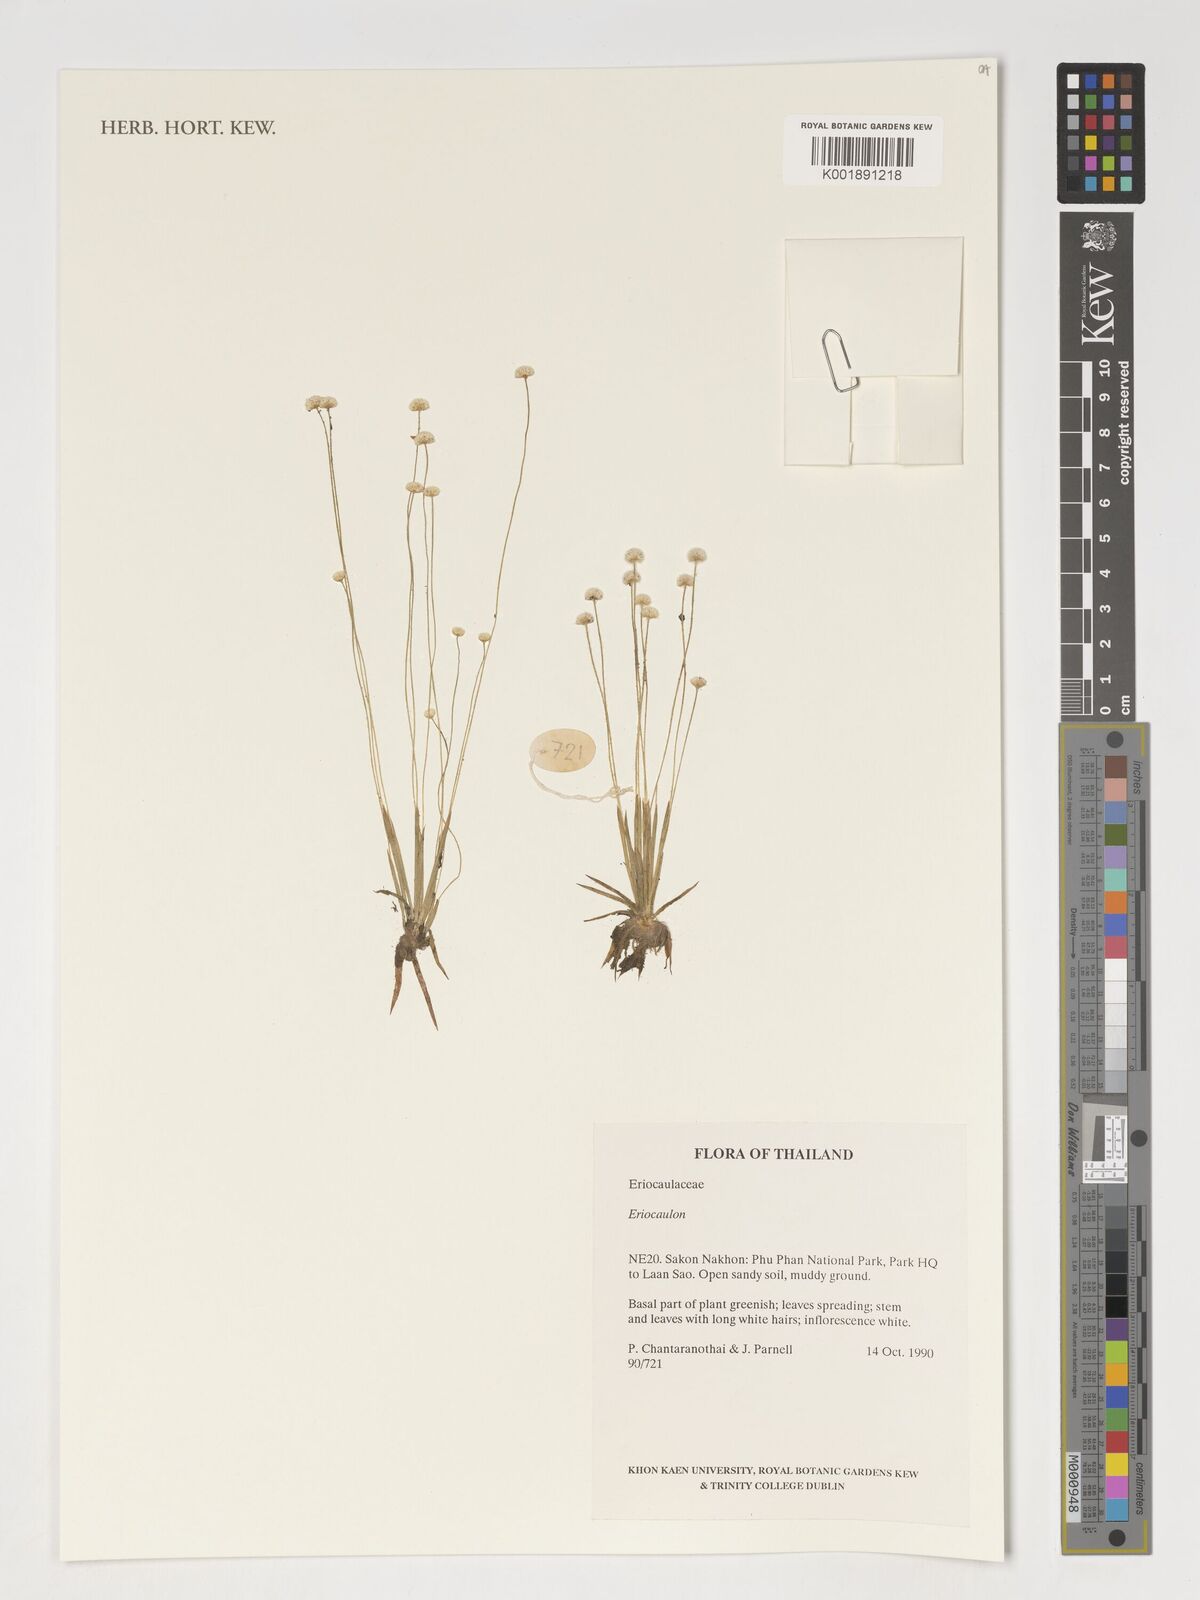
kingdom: Plantae
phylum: Tracheophyta
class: Liliopsida
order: Poales
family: Eriocaulaceae
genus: Eriocaulon
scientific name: Eriocaulon
